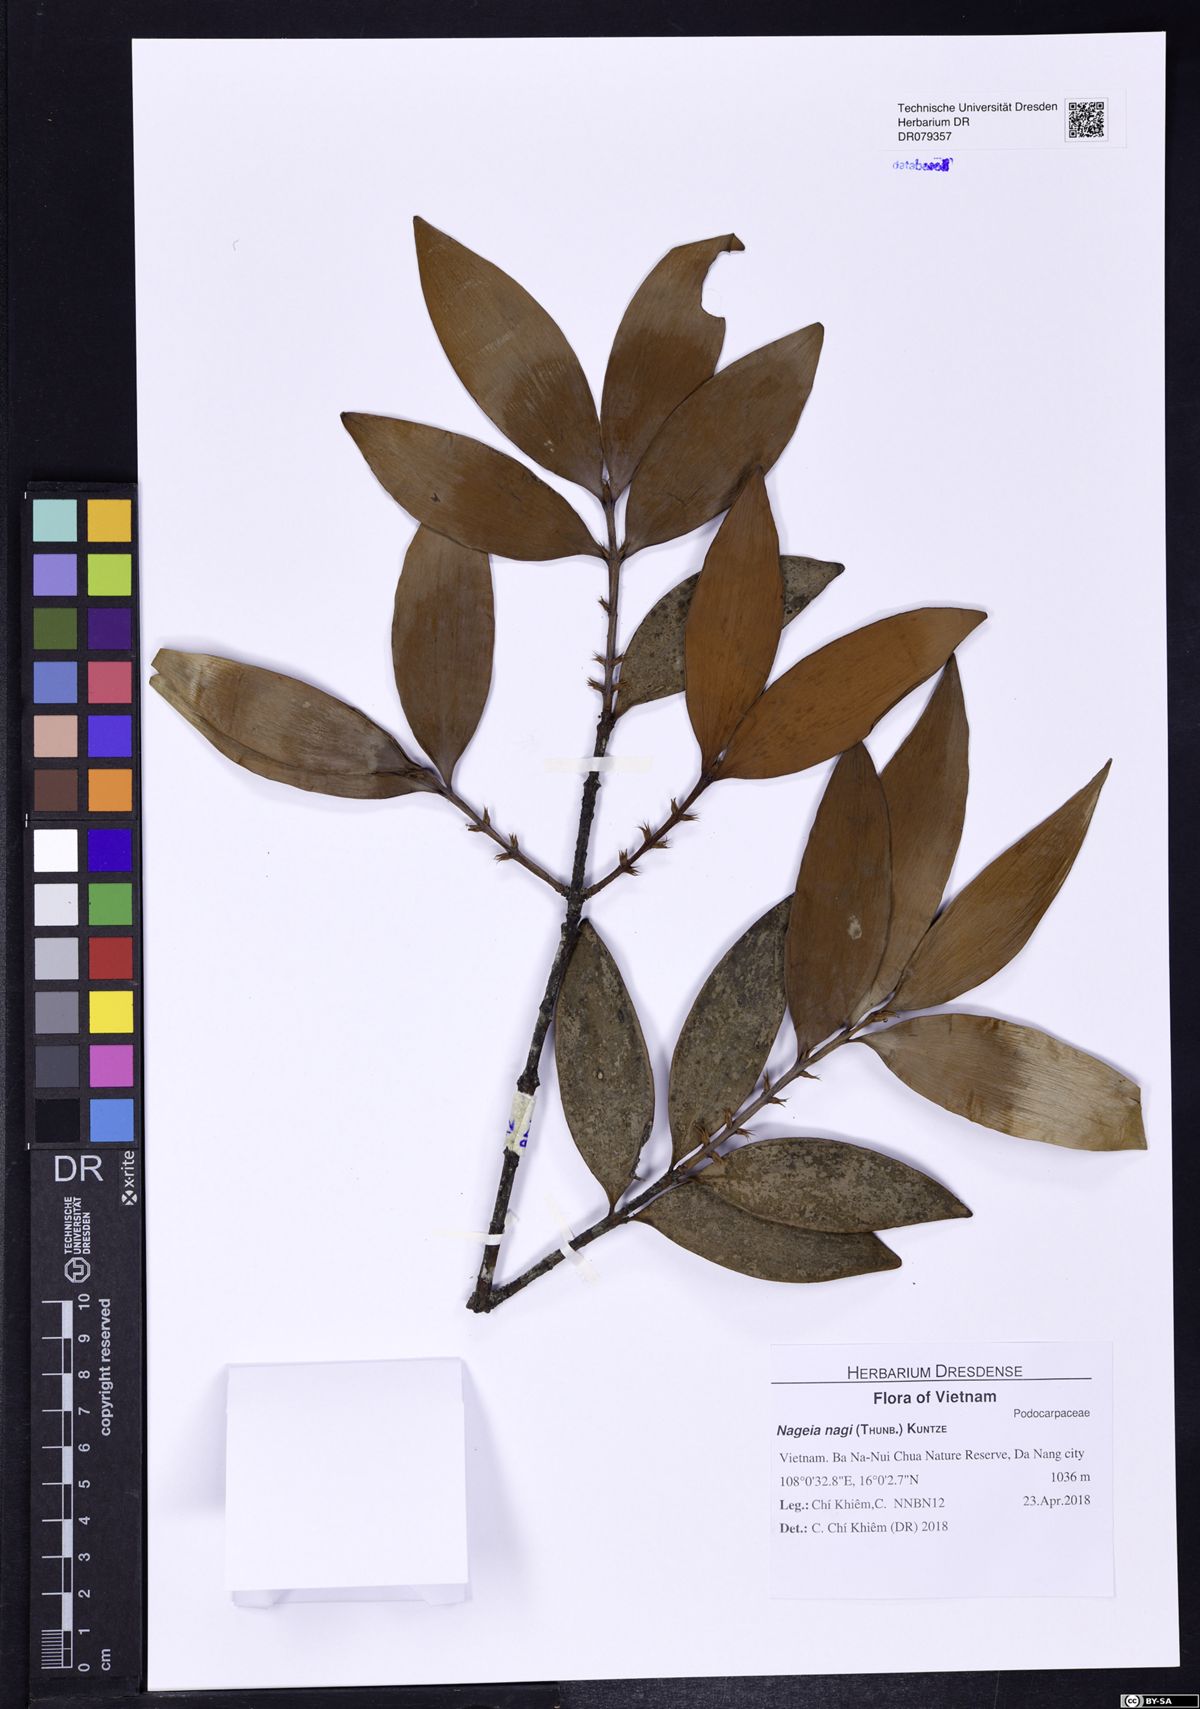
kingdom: Plantae
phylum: Tracheophyta
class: Pinopsida
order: Pinales
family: Podocarpaceae
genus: Nageia
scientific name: Nageia nagi
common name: Kaphal
